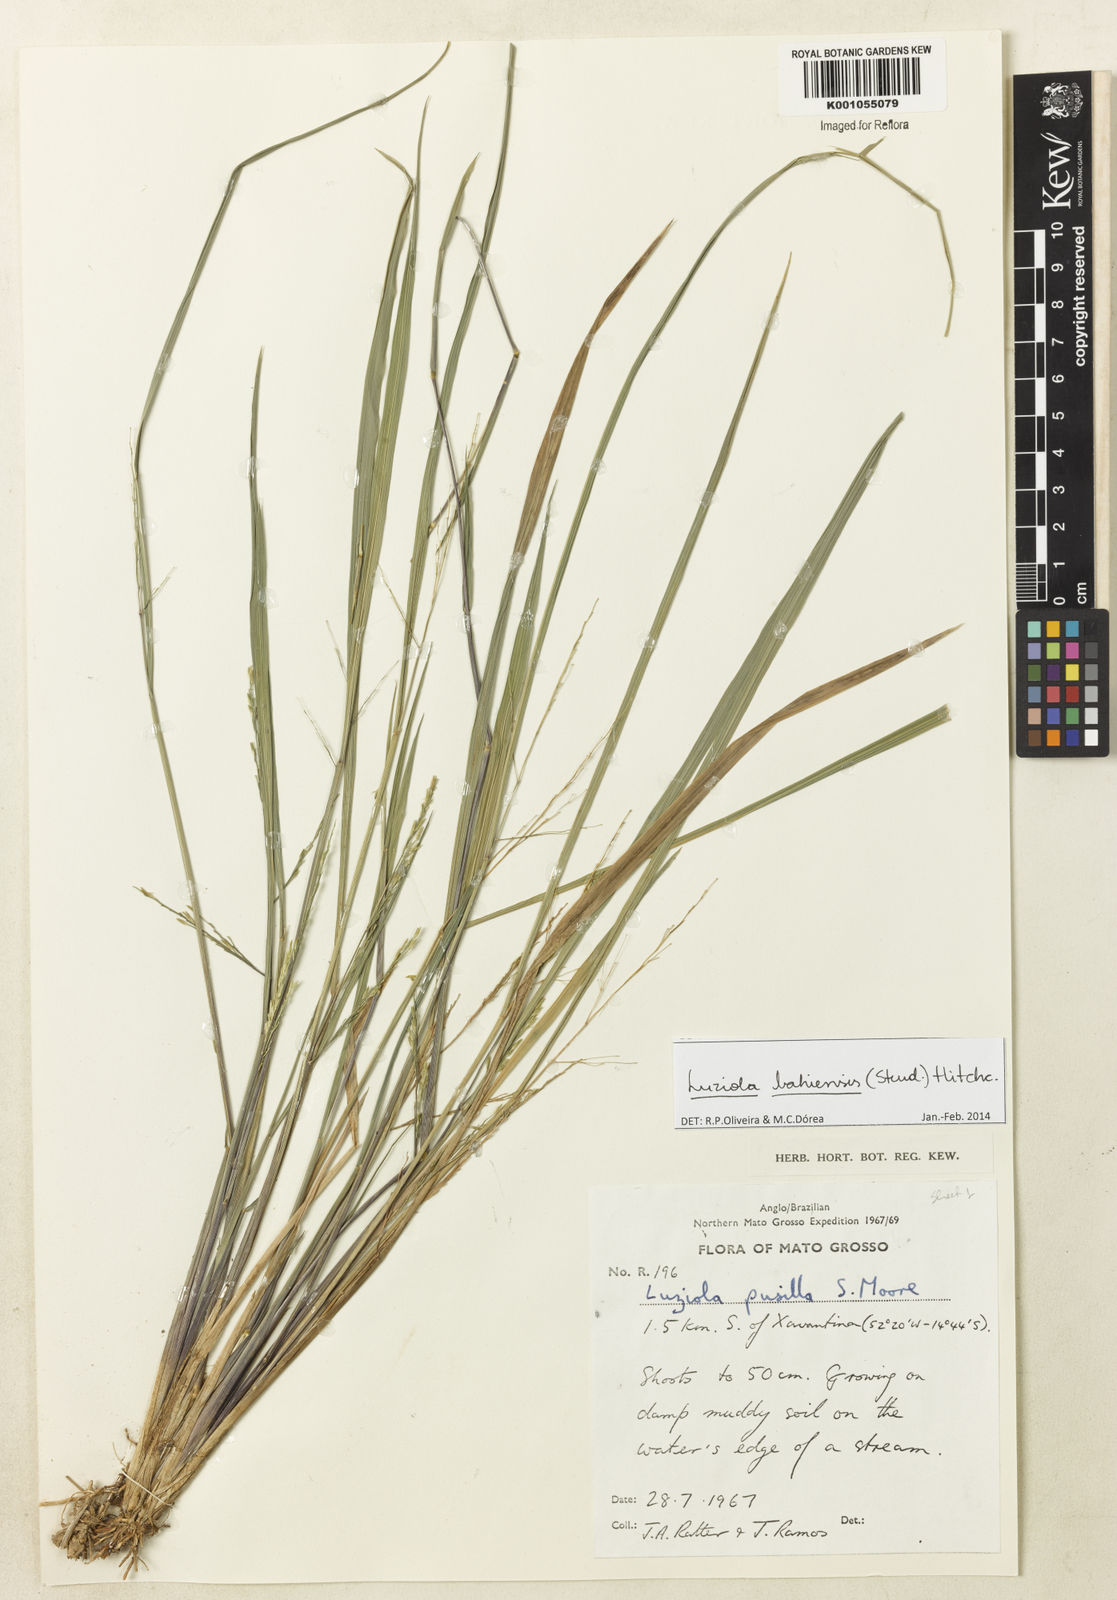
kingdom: Plantae
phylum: Tracheophyta
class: Liliopsida
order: Poales
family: Poaceae
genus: Luziola
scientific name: Luziola bahiensis
